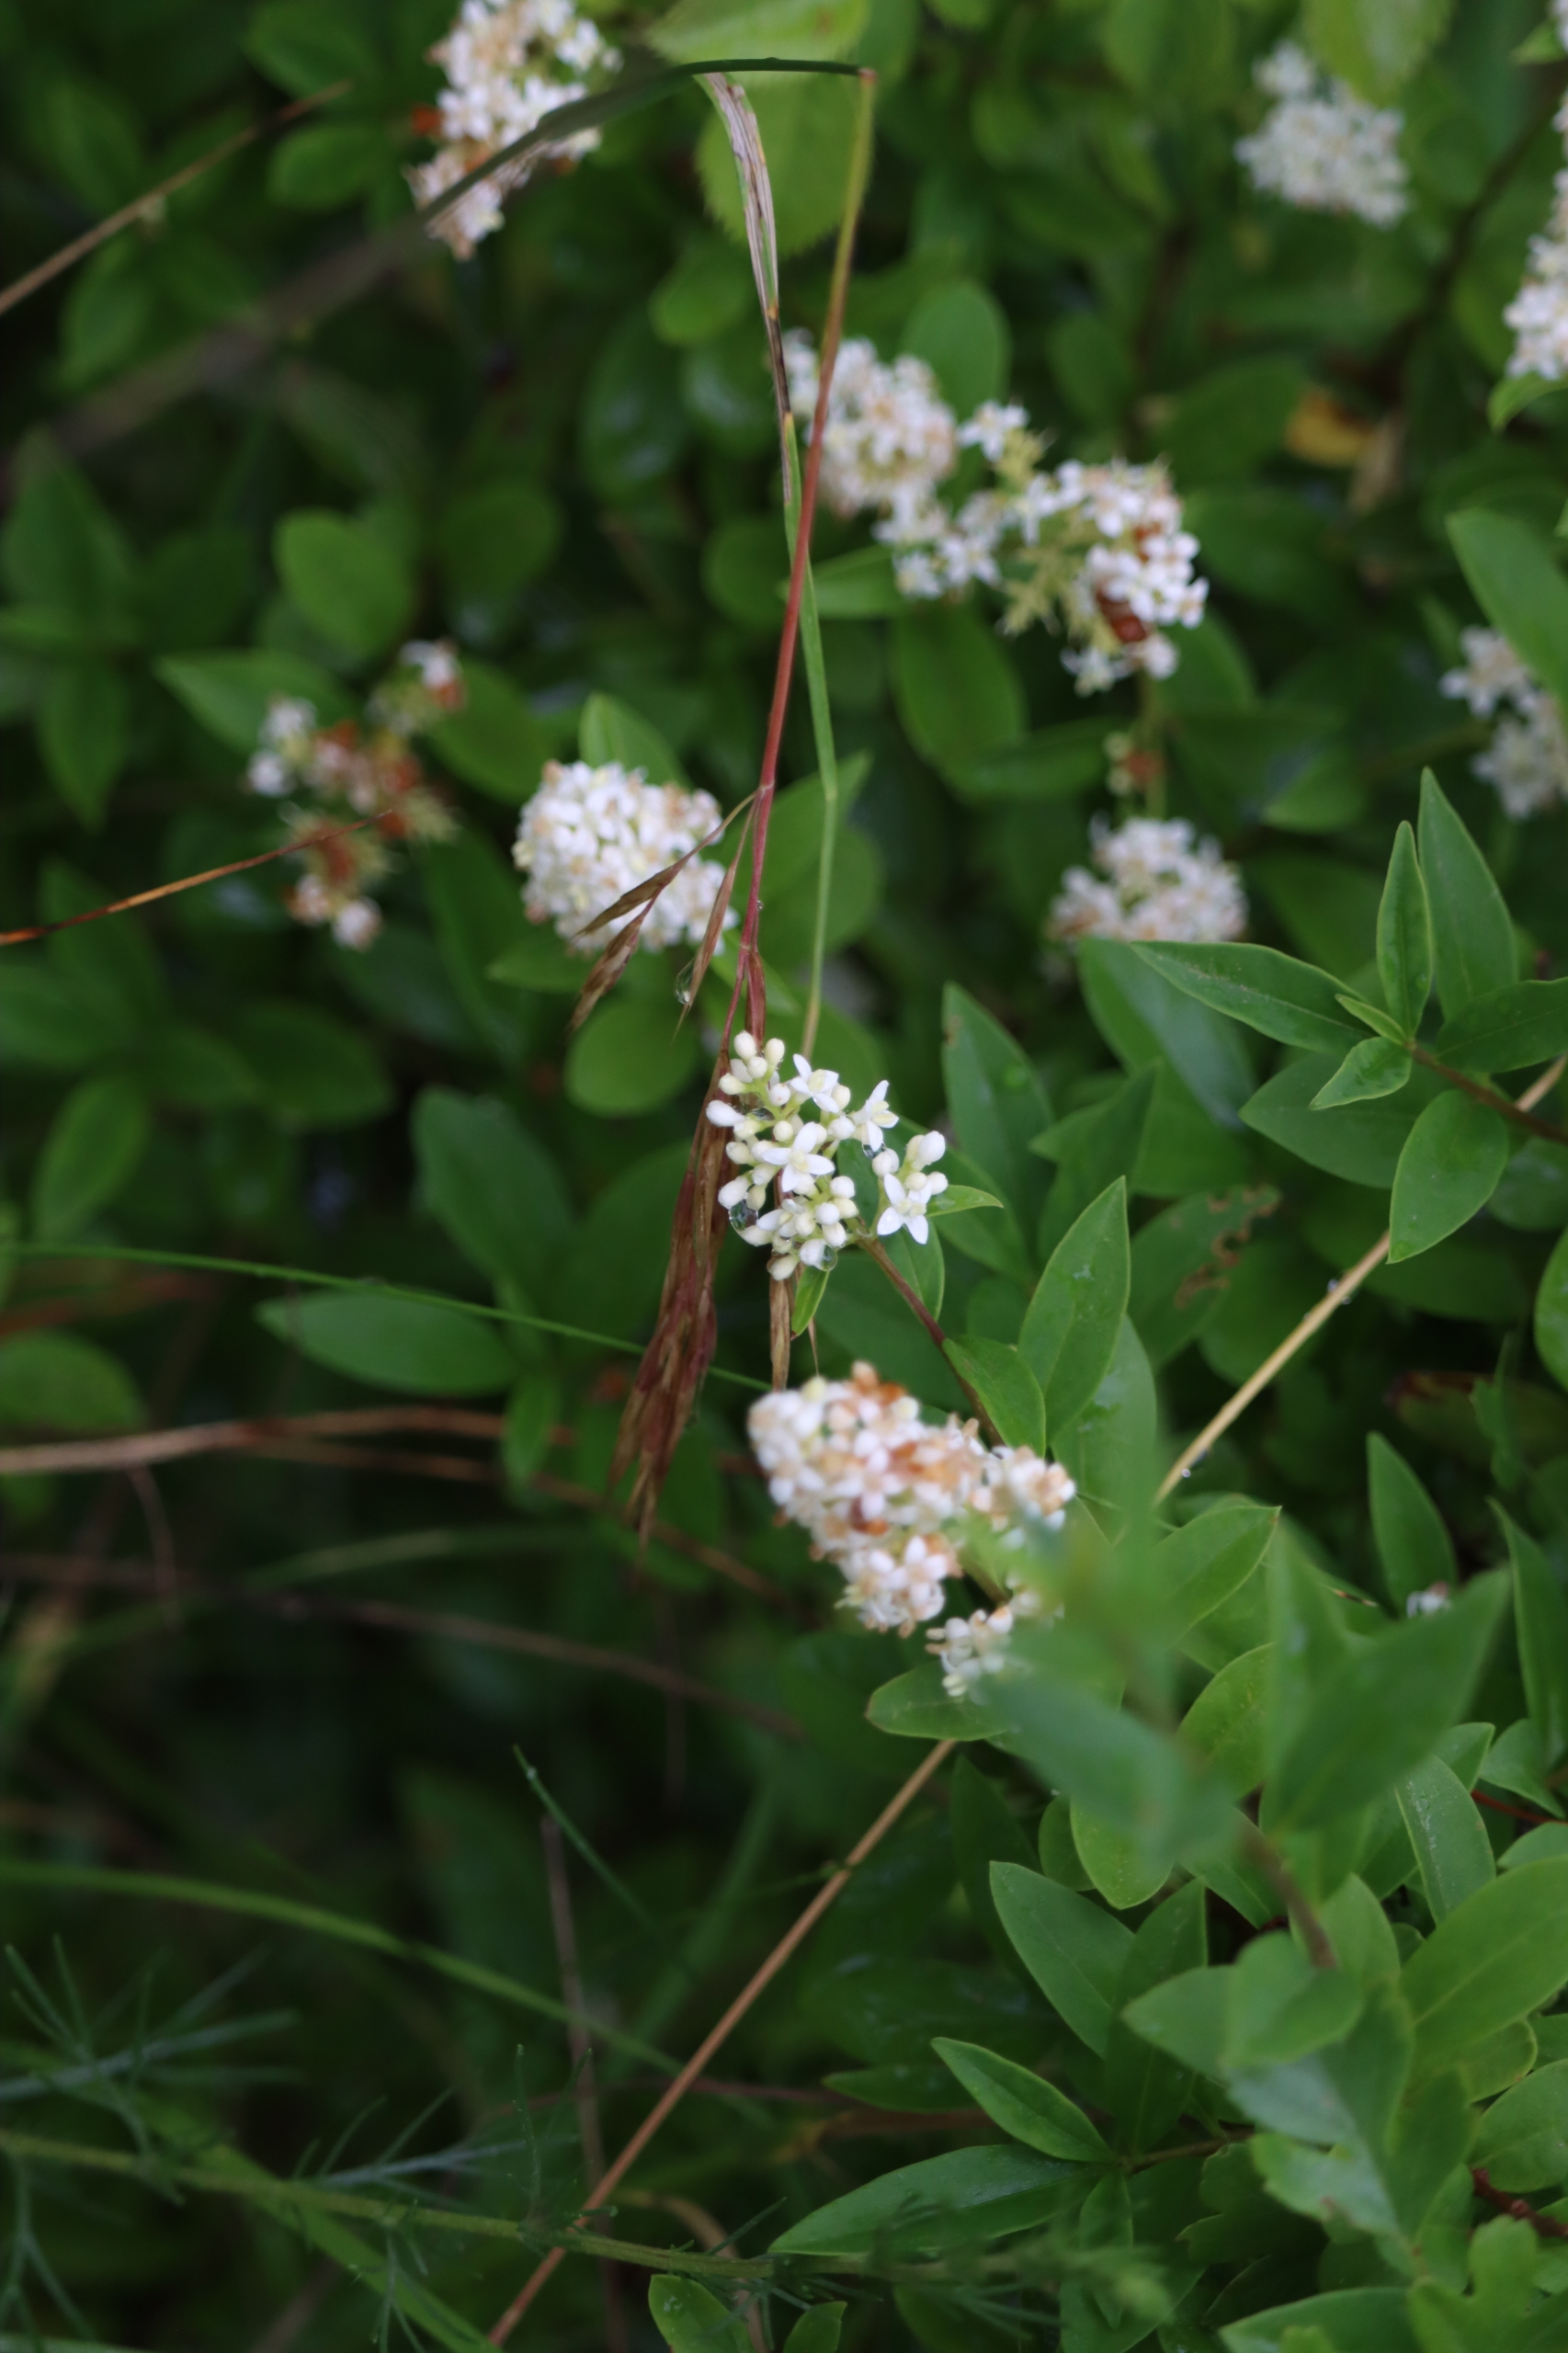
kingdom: Plantae
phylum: Tracheophyta
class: Magnoliopsida
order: Lamiales
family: Oleaceae
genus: Ligustrum
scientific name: Ligustrum vulgare
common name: Liguster
